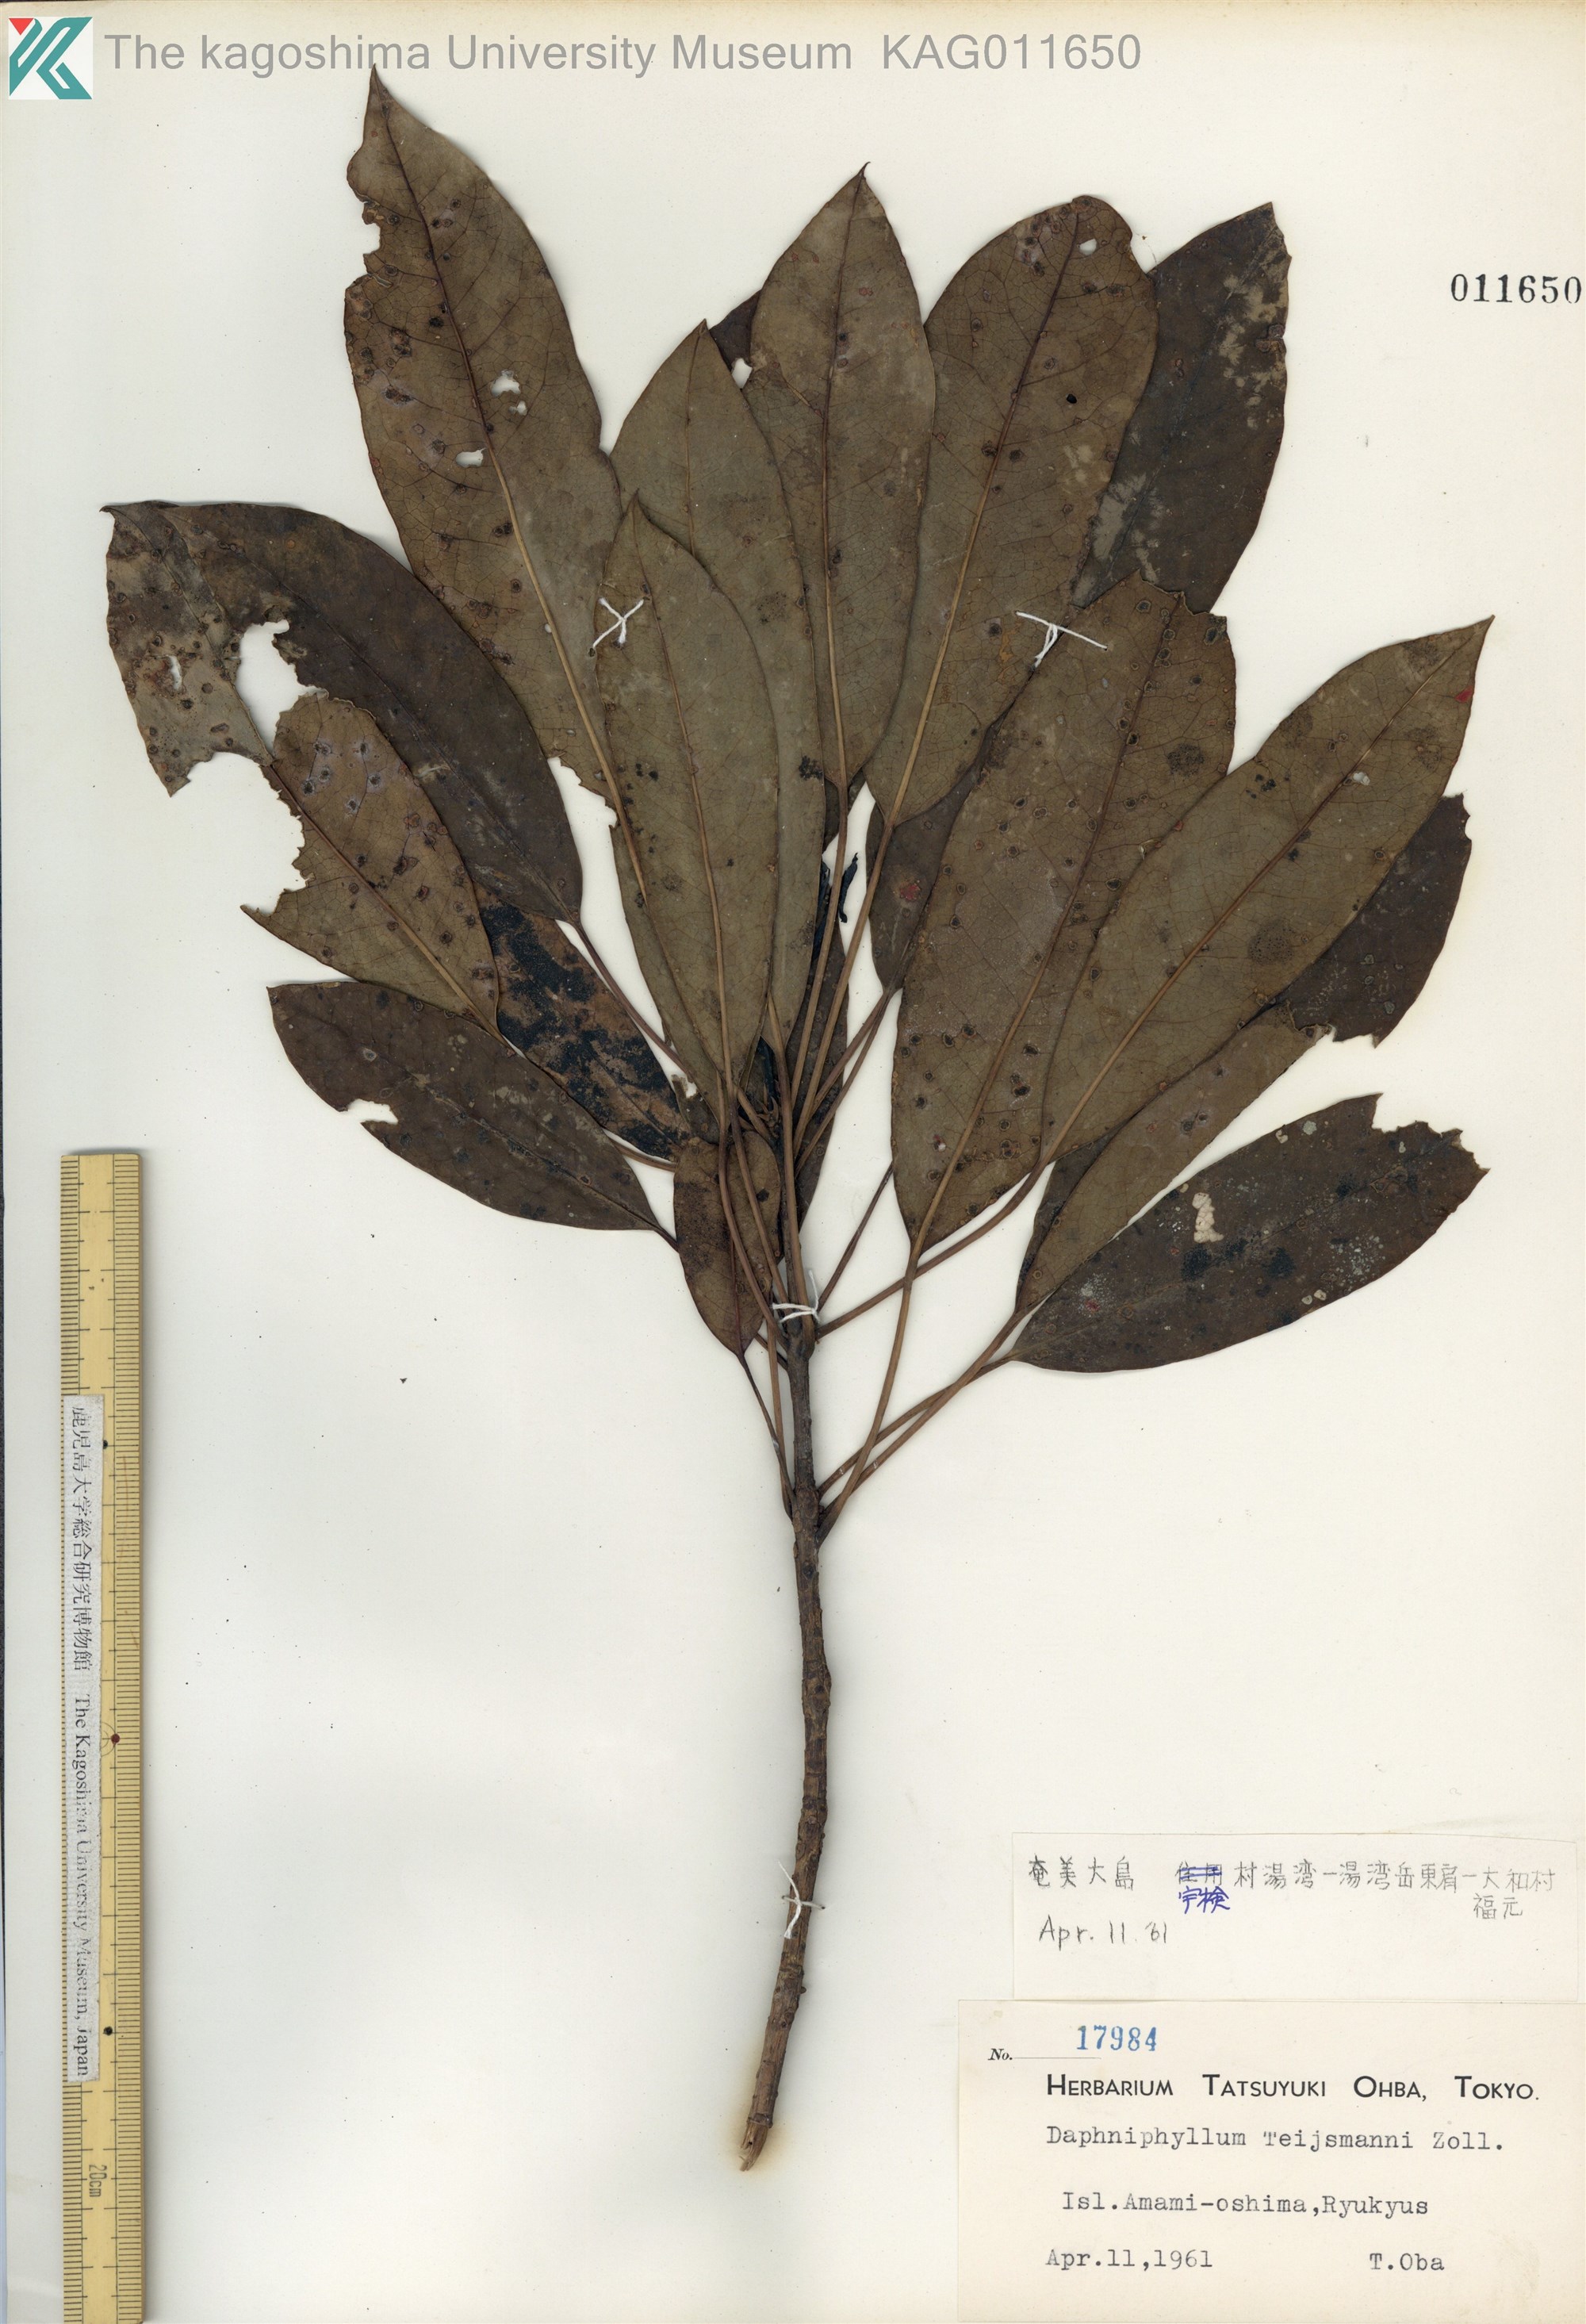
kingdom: Plantae
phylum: Tracheophyta
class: Magnoliopsida
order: Saxifragales
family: Daphniphyllaceae
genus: Daphniphyllum
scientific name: Daphniphyllum teijsmannii
